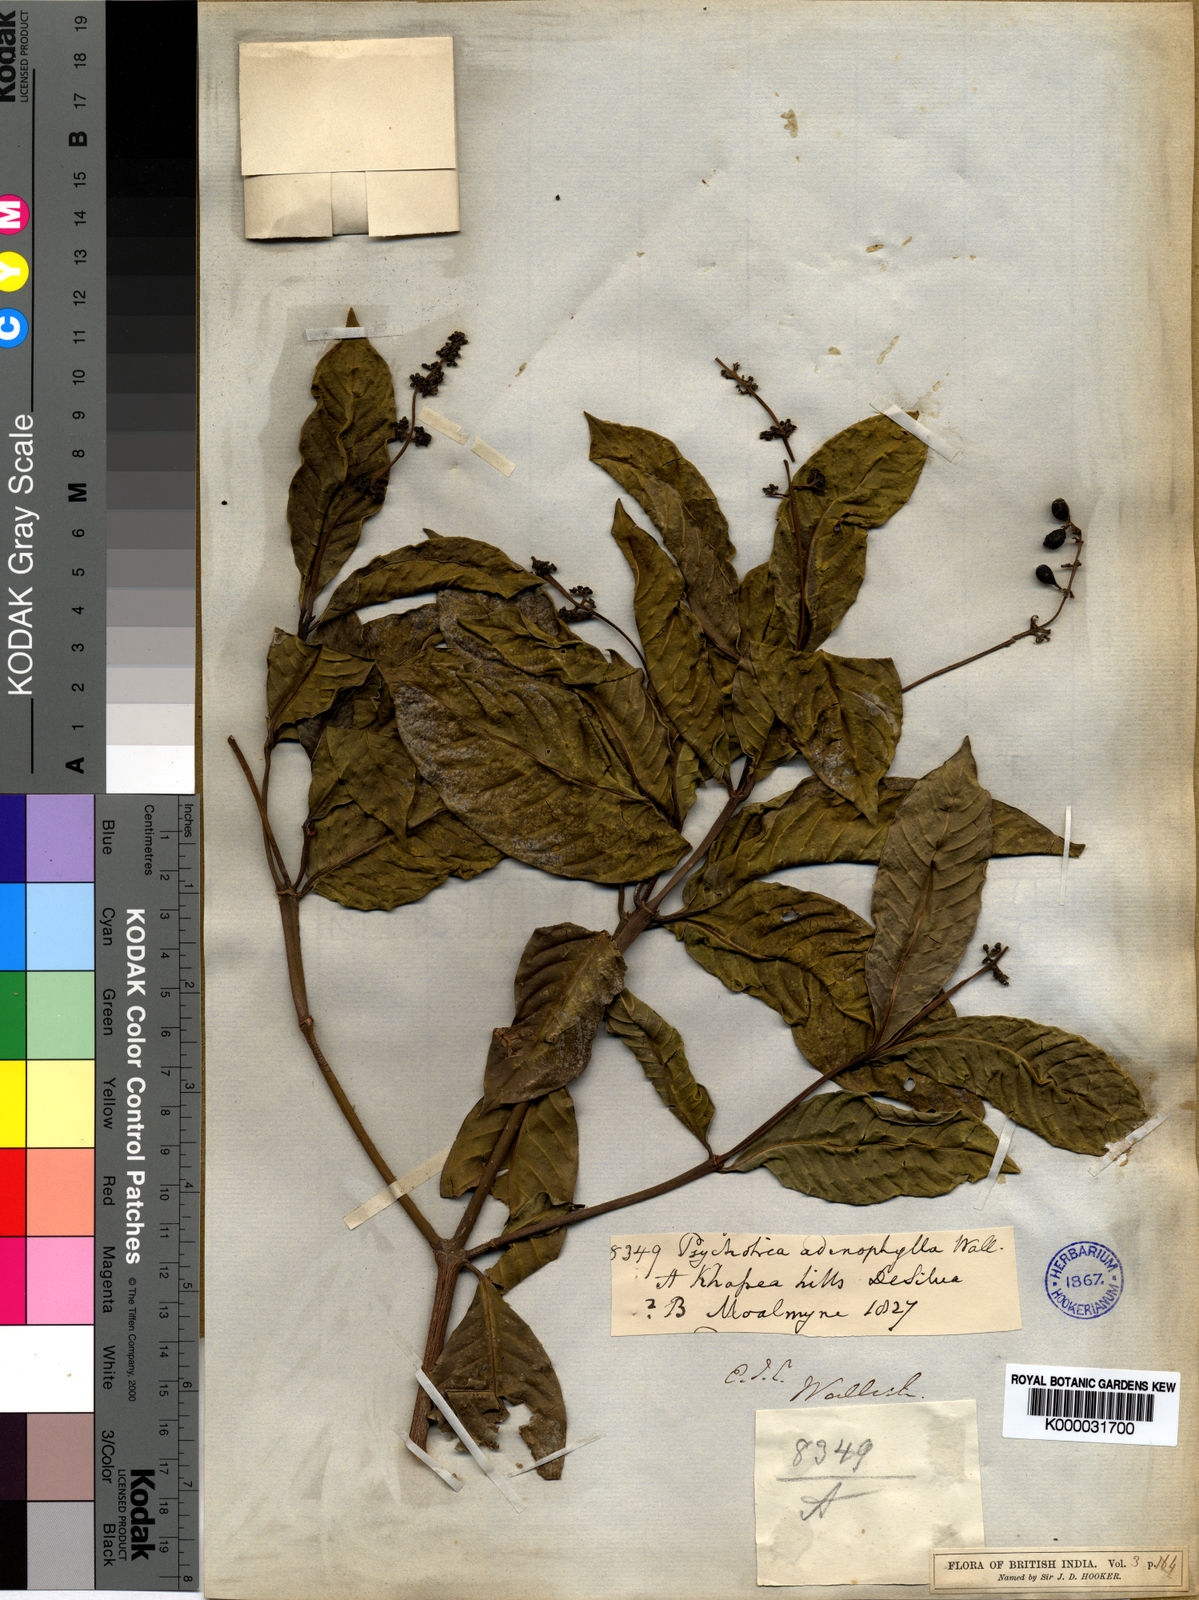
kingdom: Plantae
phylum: Tracheophyta
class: Magnoliopsida
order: Gentianales
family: Rubiaceae
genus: Psychotria
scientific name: Psychotria adenophylla
